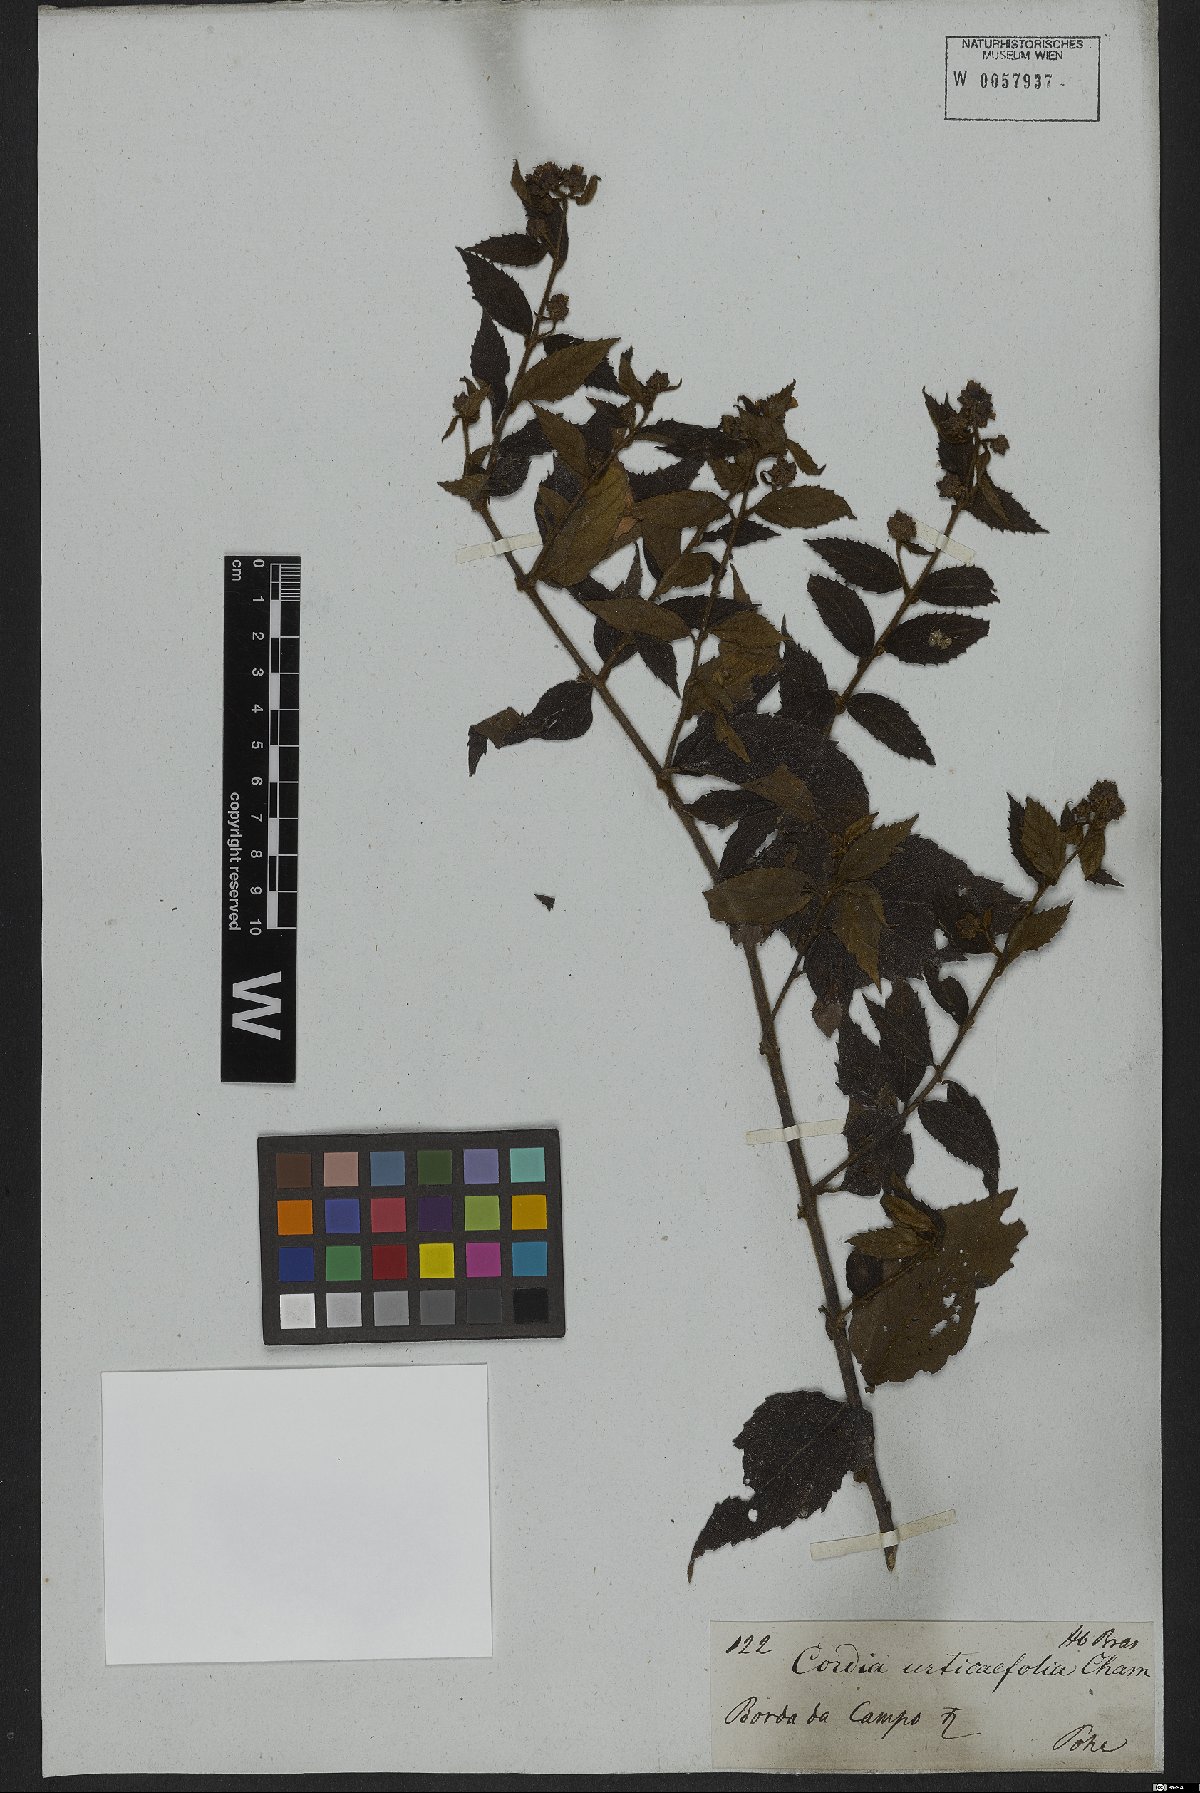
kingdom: Plantae
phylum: Tracheophyta
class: Magnoliopsida
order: Boraginales
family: Cordiaceae
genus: Varronia
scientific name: Varronia polycephala
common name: Black-sage
